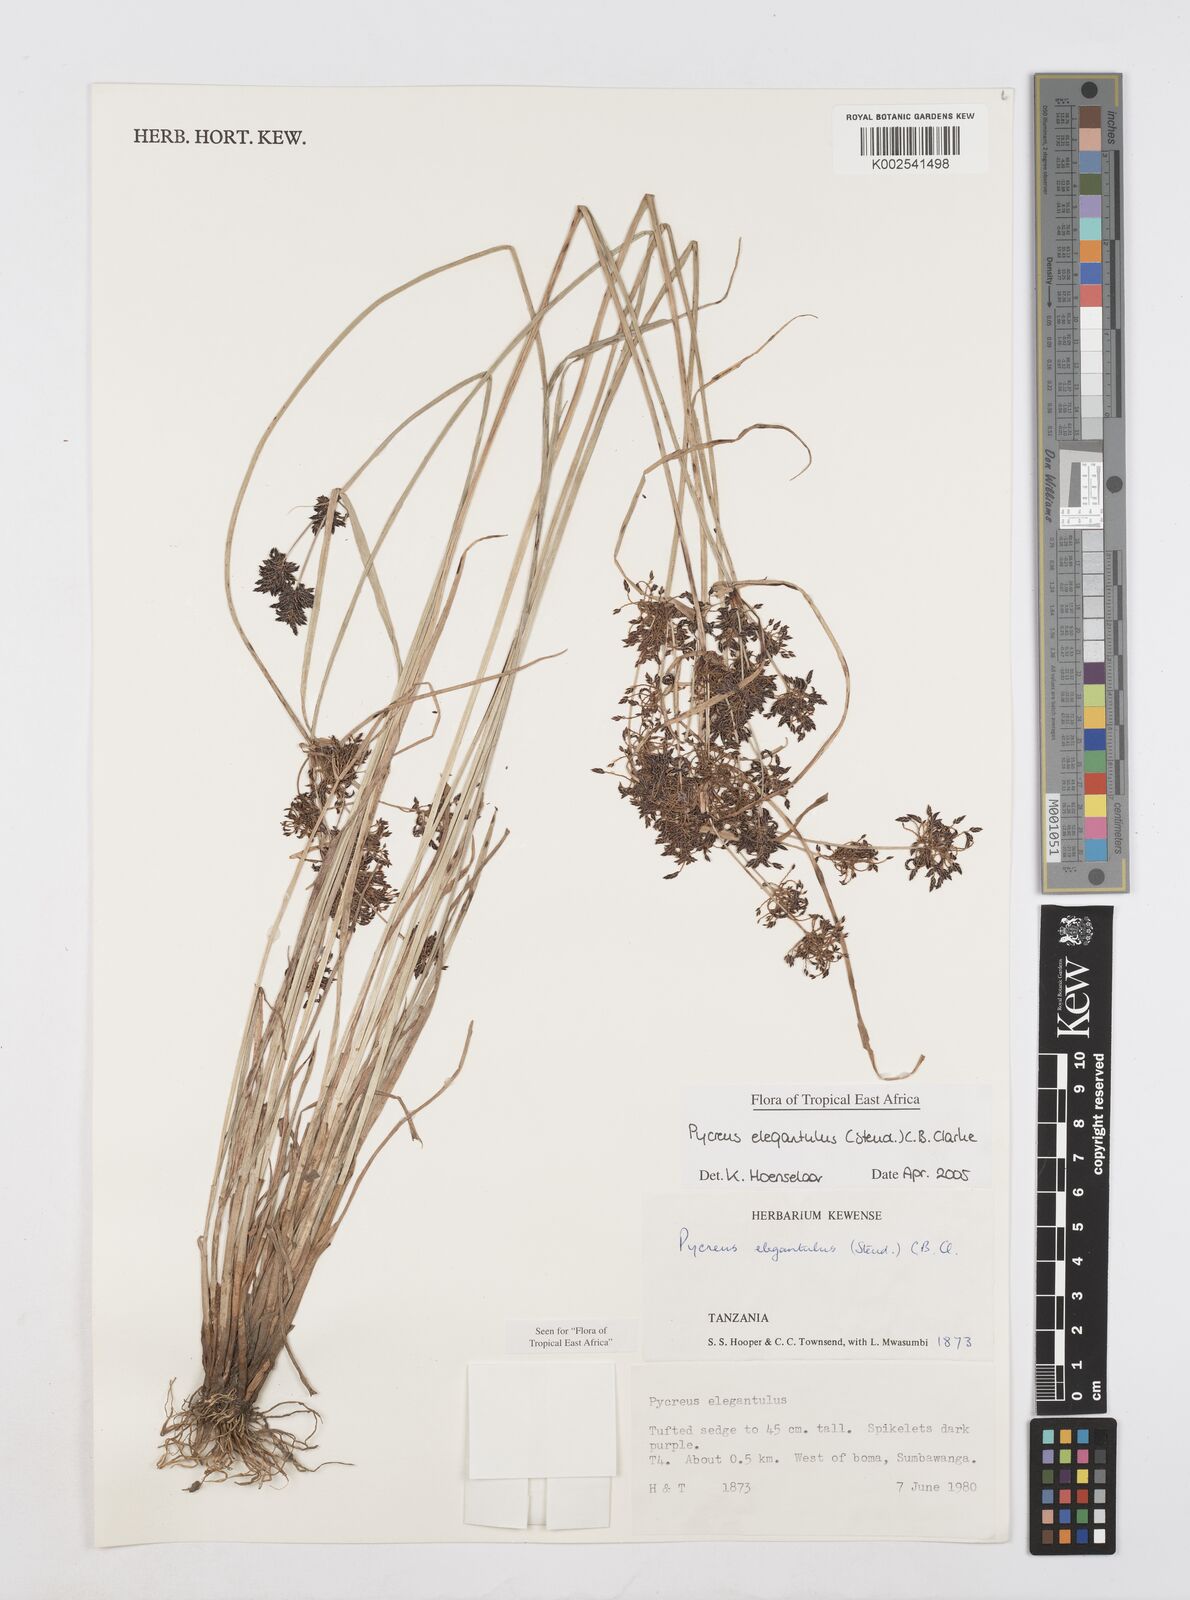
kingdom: Plantae
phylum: Tracheophyta
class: Liliopsida
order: Poales
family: Cyperaceae
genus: Cyperus
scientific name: Cyperus elegantulus
